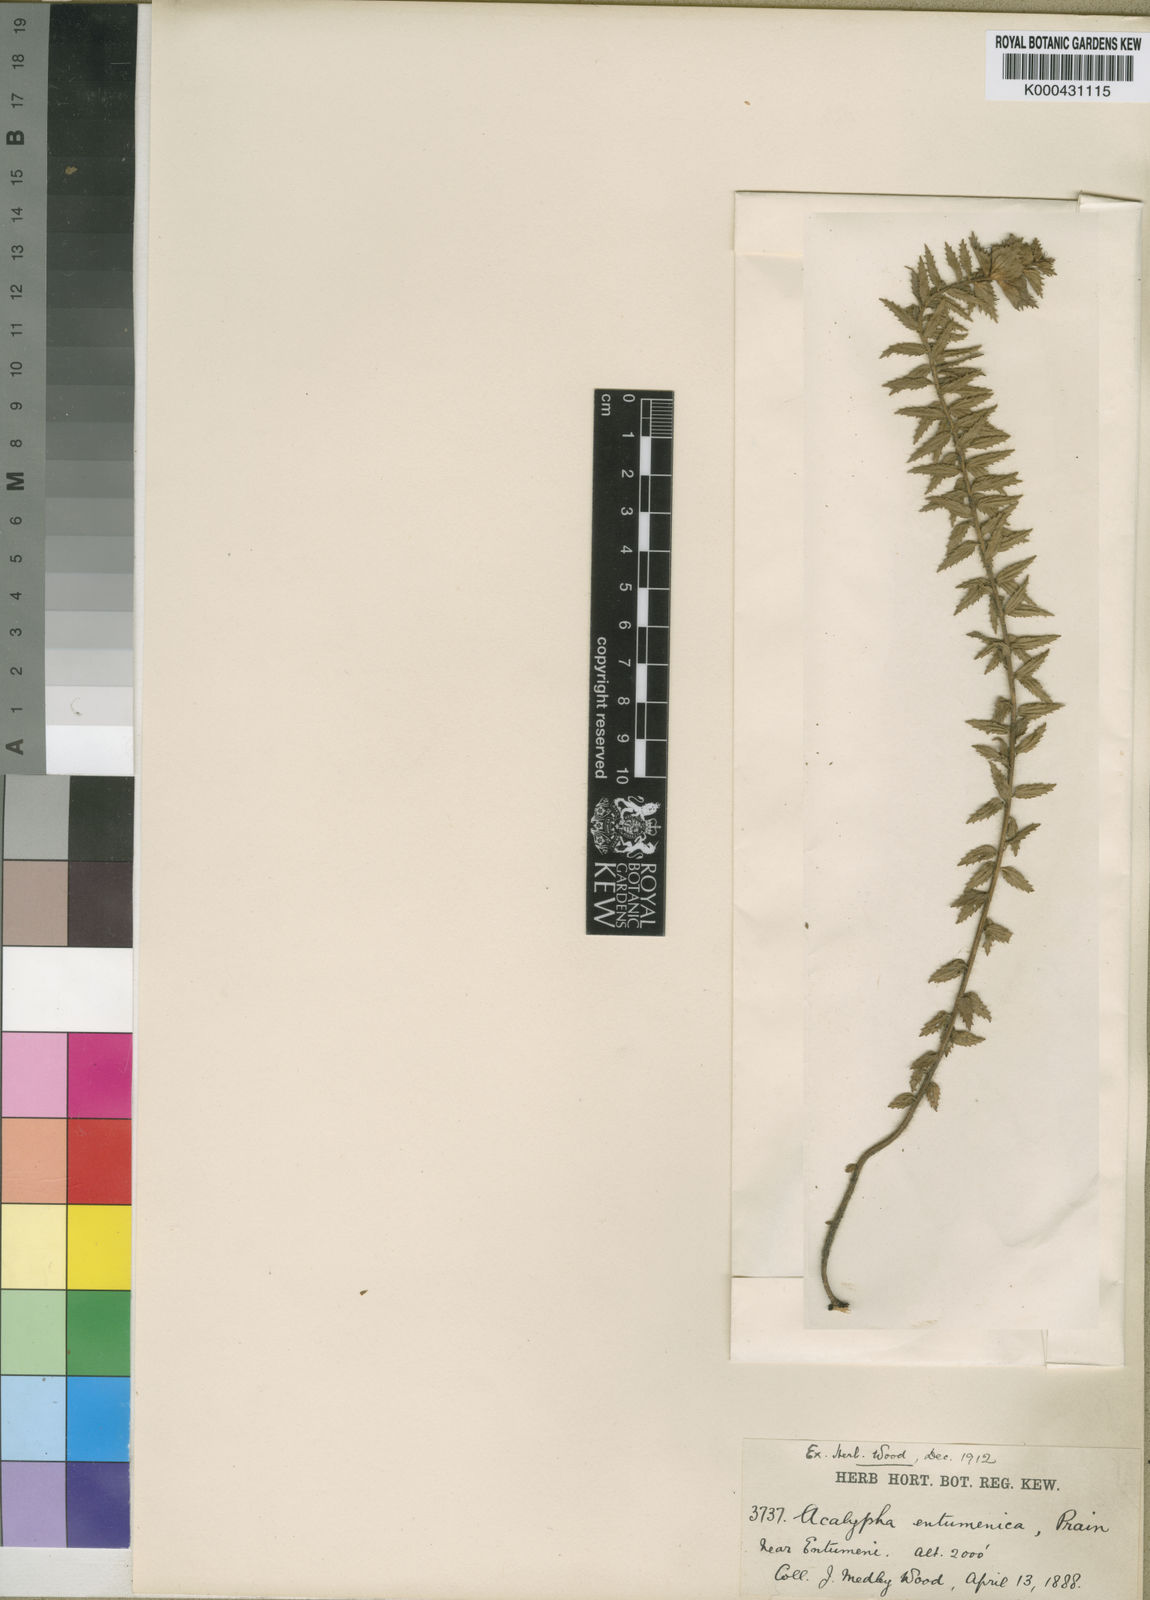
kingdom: Plantae
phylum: Tracheophyta
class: Magnoliopsida
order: Malpighiales
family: Euphorbiaceae
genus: Acalypha
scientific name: Acalypha glandulifolia
